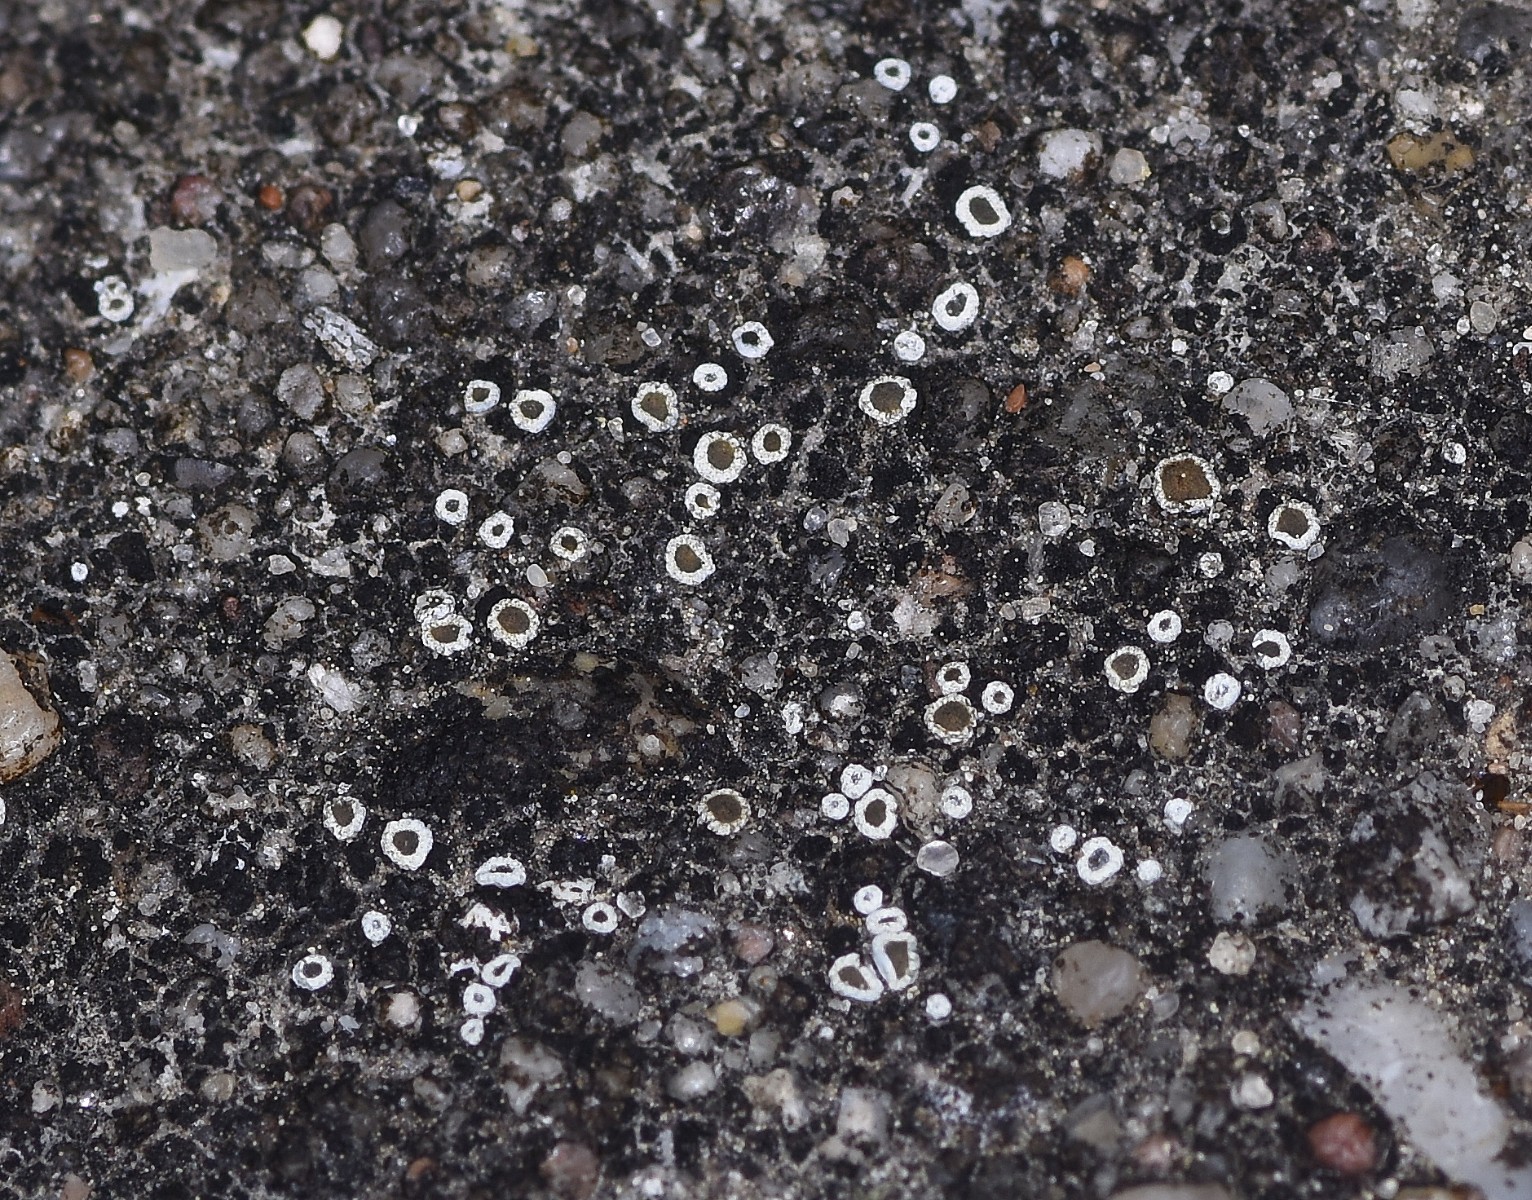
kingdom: Fungi
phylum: Ascomycota
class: Lecanoromycetes
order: Lecanorales
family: Lecanoraceae
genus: Polyozosia
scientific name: Polyozosia semipallida
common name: vinetorin-kantskivelav
